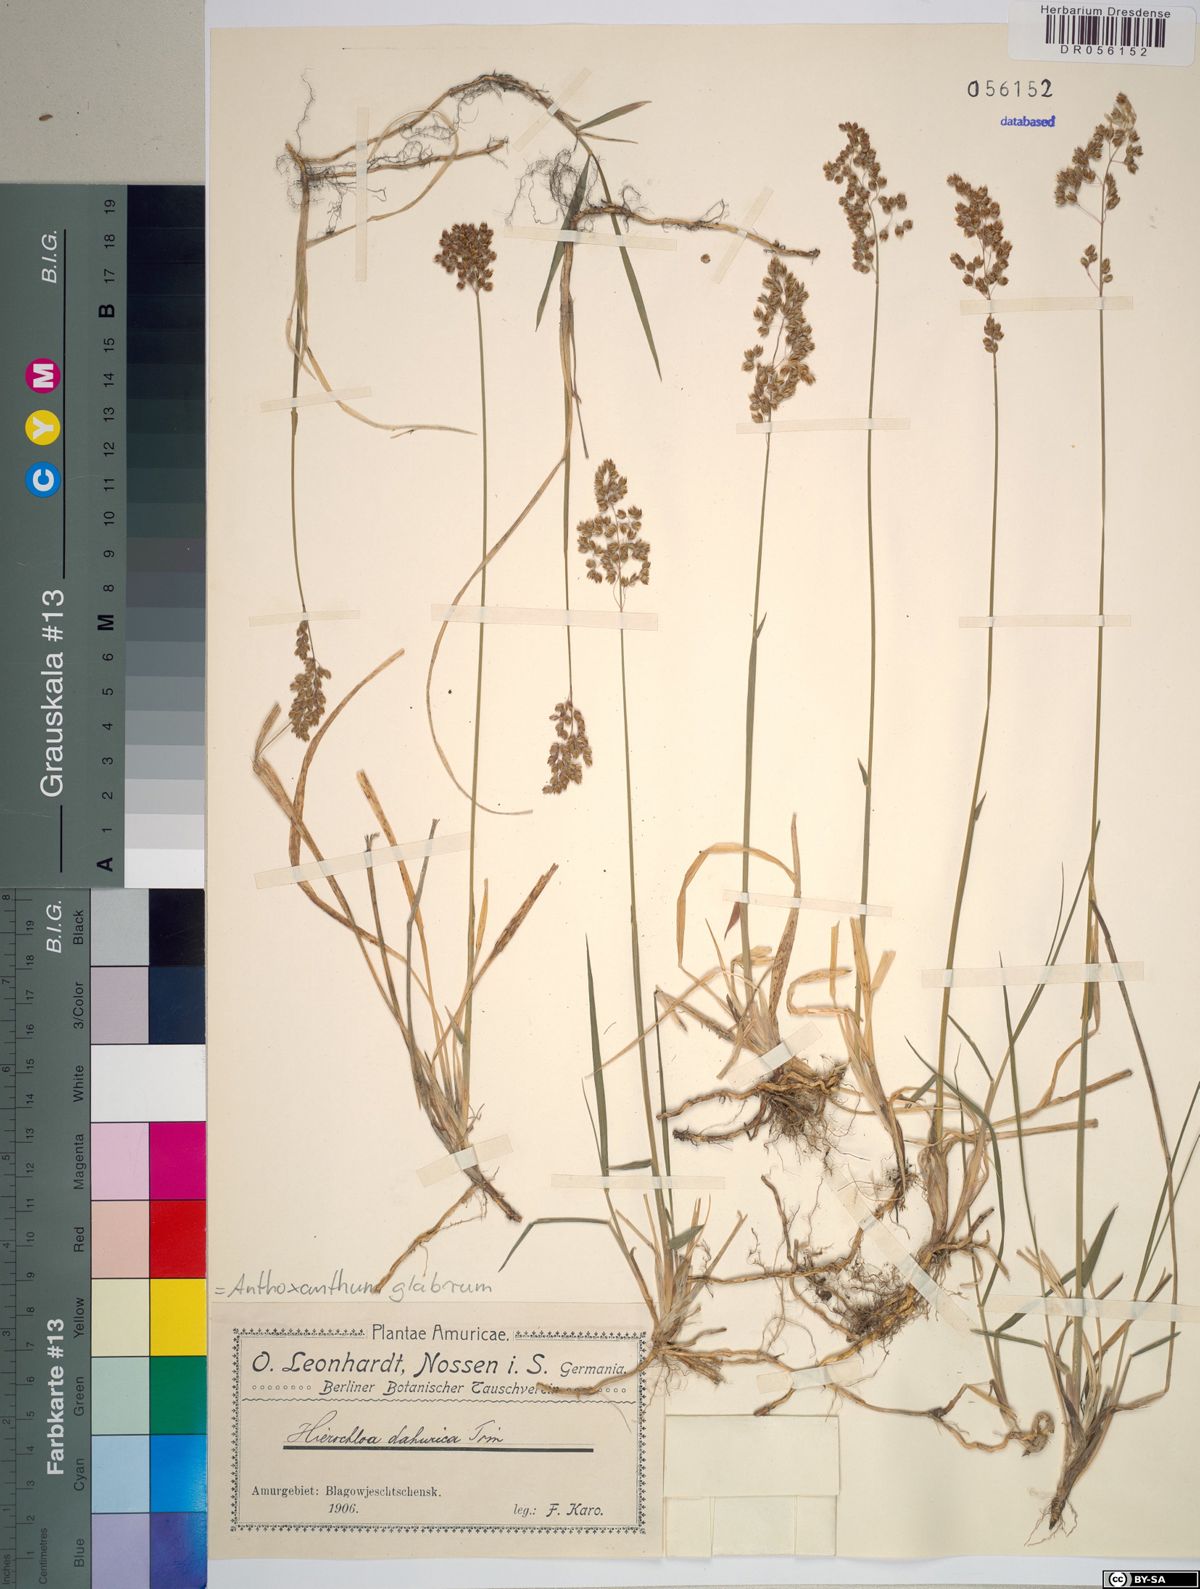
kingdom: Plantae
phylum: Tracheophyta
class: Liliopsida
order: Poales
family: Poaceae
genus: Anthoxanthum
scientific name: Anthoxanthum glabrum
